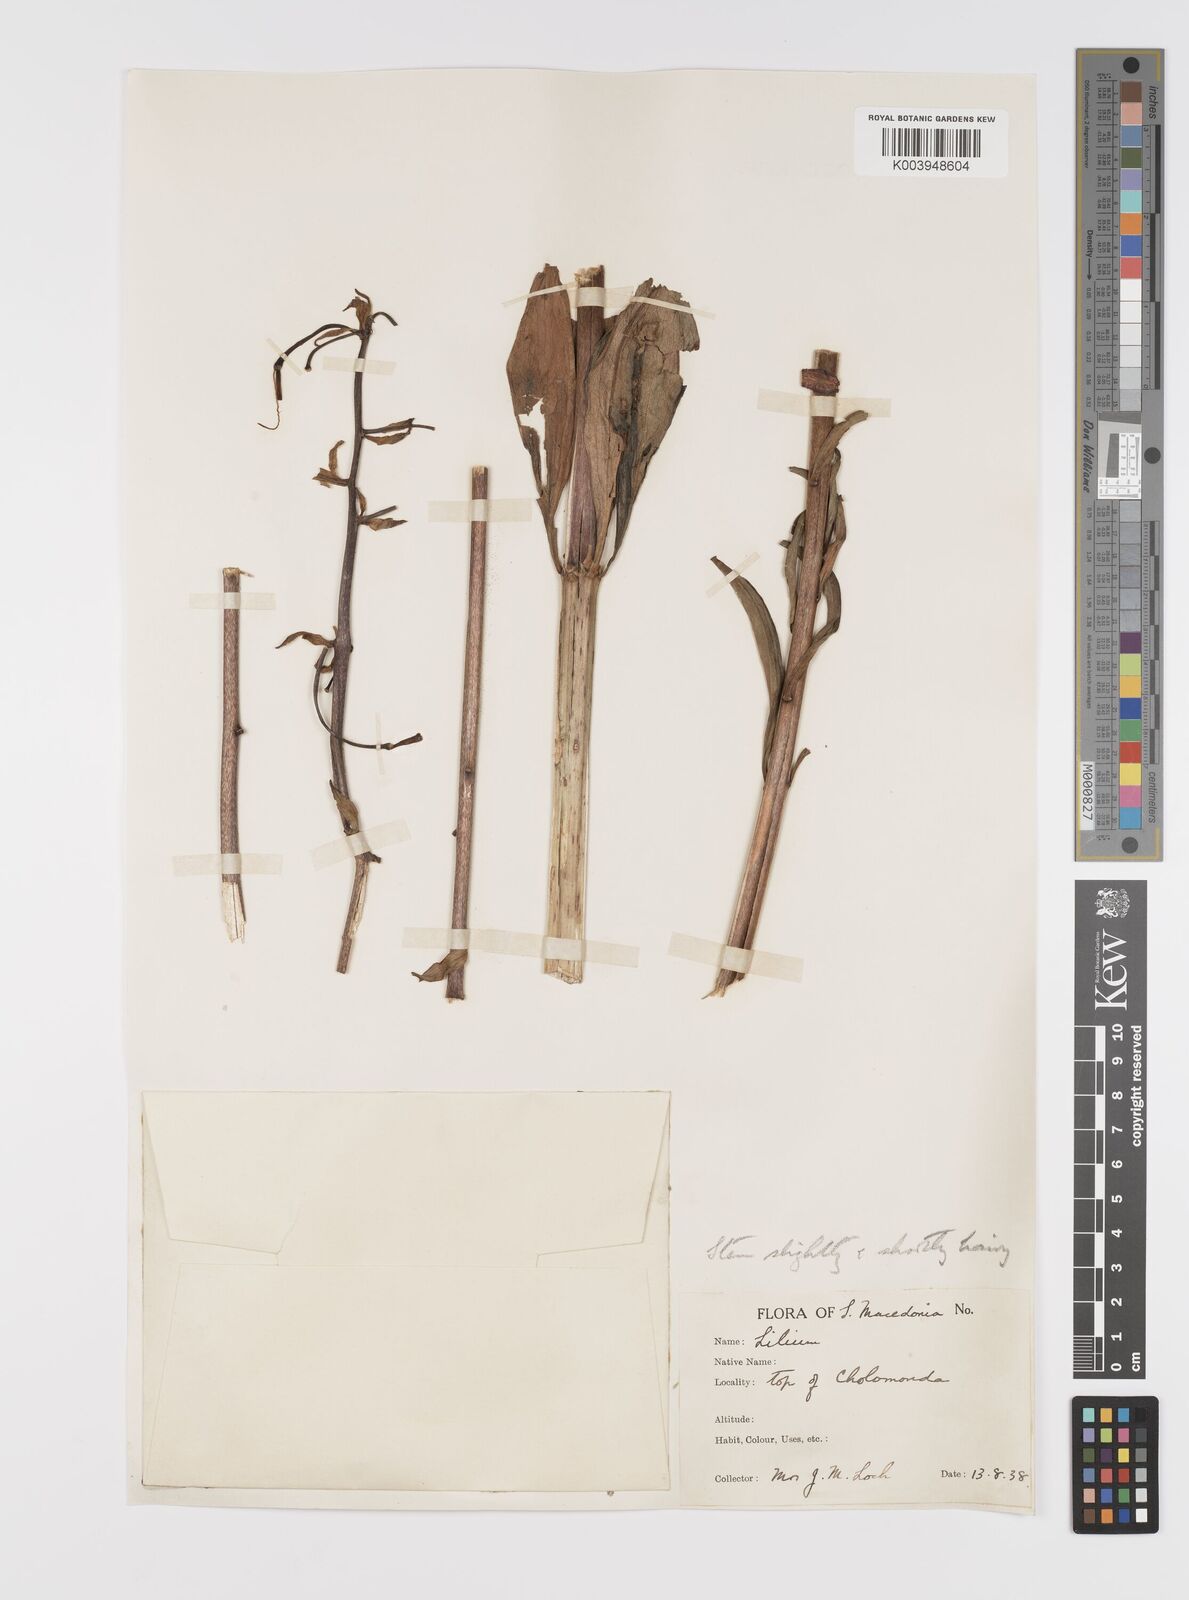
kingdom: Plantae
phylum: Tracheophyta
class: Liliopsida
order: Liliales
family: Liliaceae
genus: Lilium
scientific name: Lilium martagon
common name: Martagon lily
